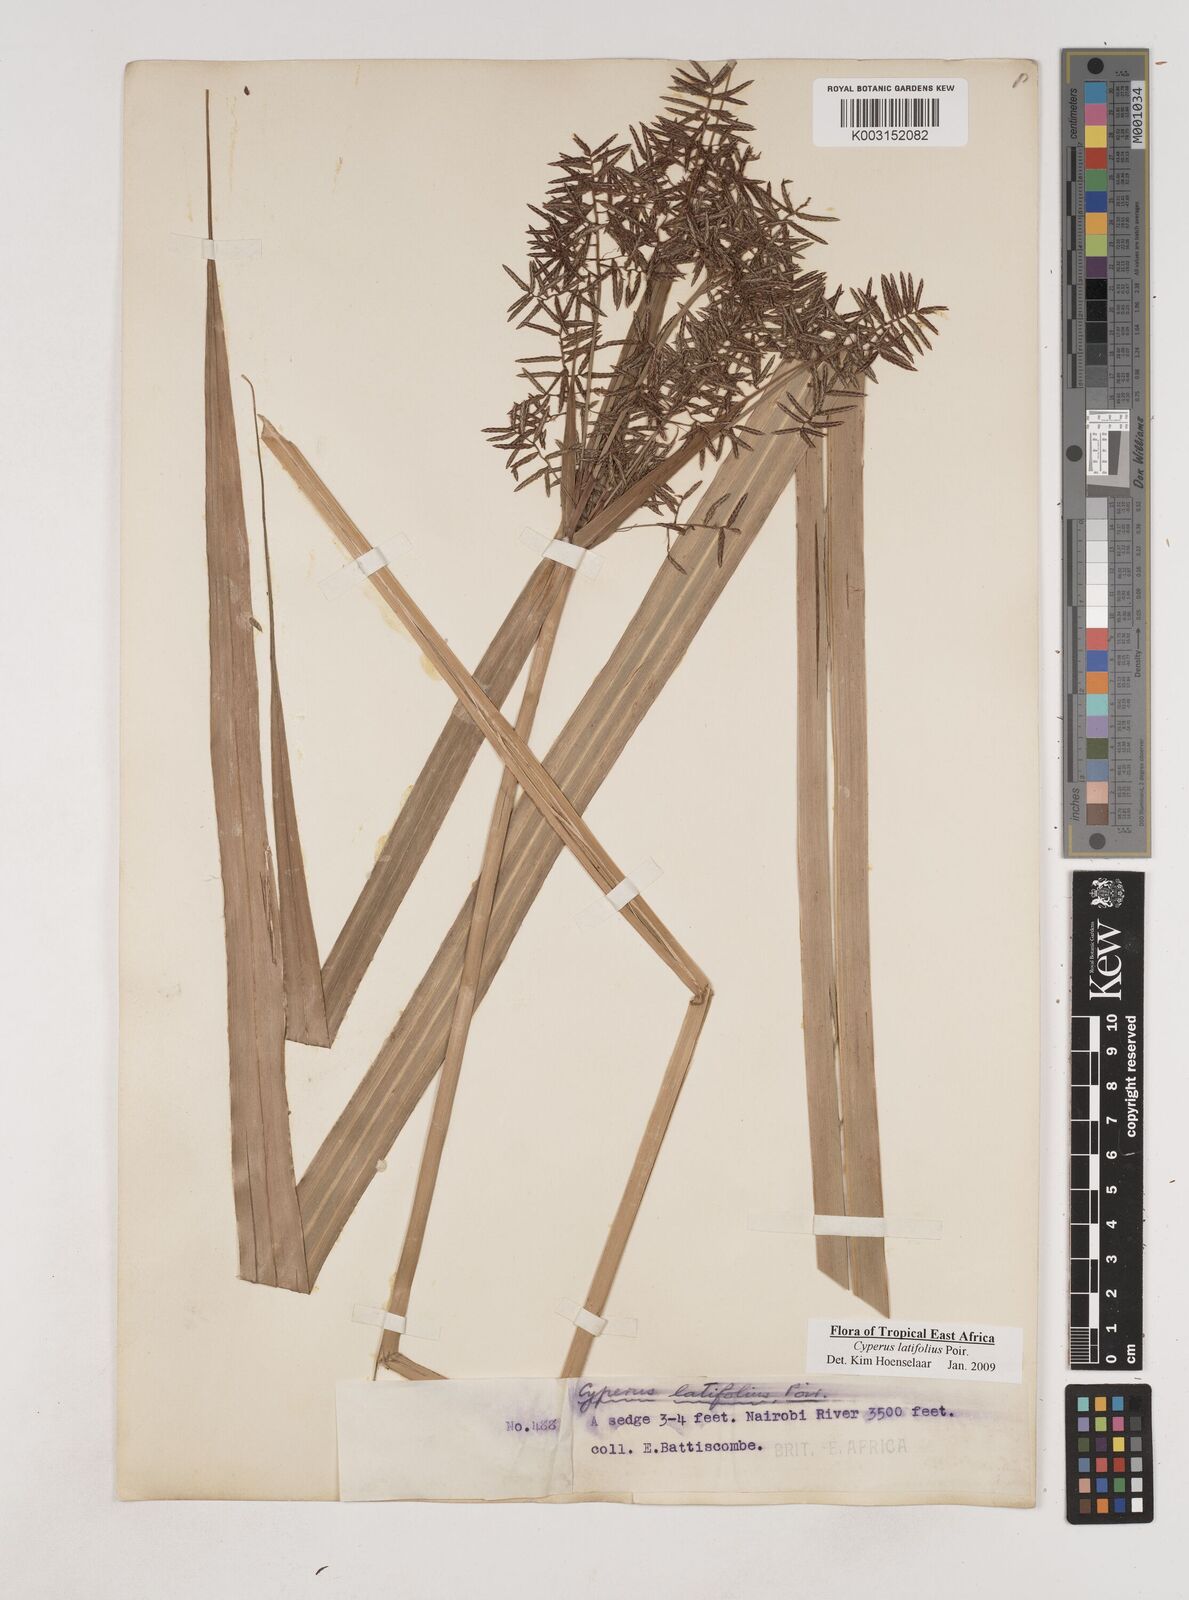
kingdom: Plantae
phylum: Tracheophyta
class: Liliopsida
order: Poales
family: Cyperaceae
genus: Cyperus
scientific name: Cyperus latifolius
